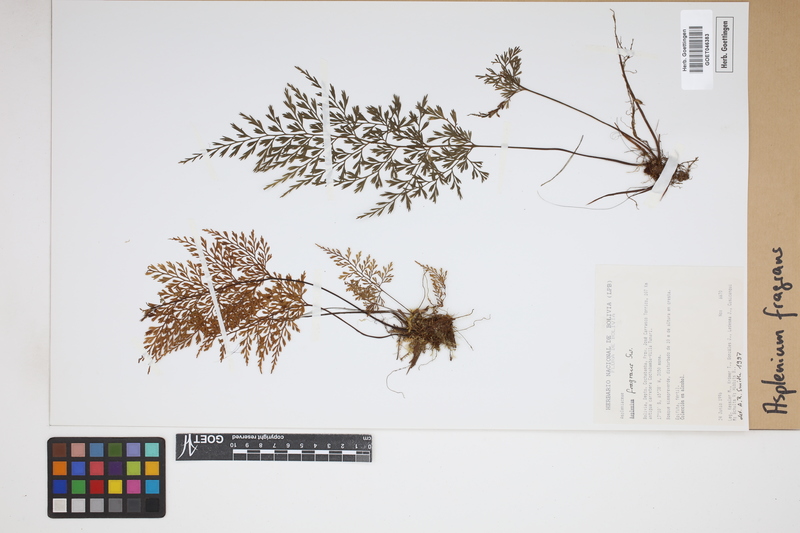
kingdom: Plantae
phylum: Tracheophyta
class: Polypodiopsida
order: Polypodiales
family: Aspleniaceae
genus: Asplenium
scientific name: Asplenium fragrans
